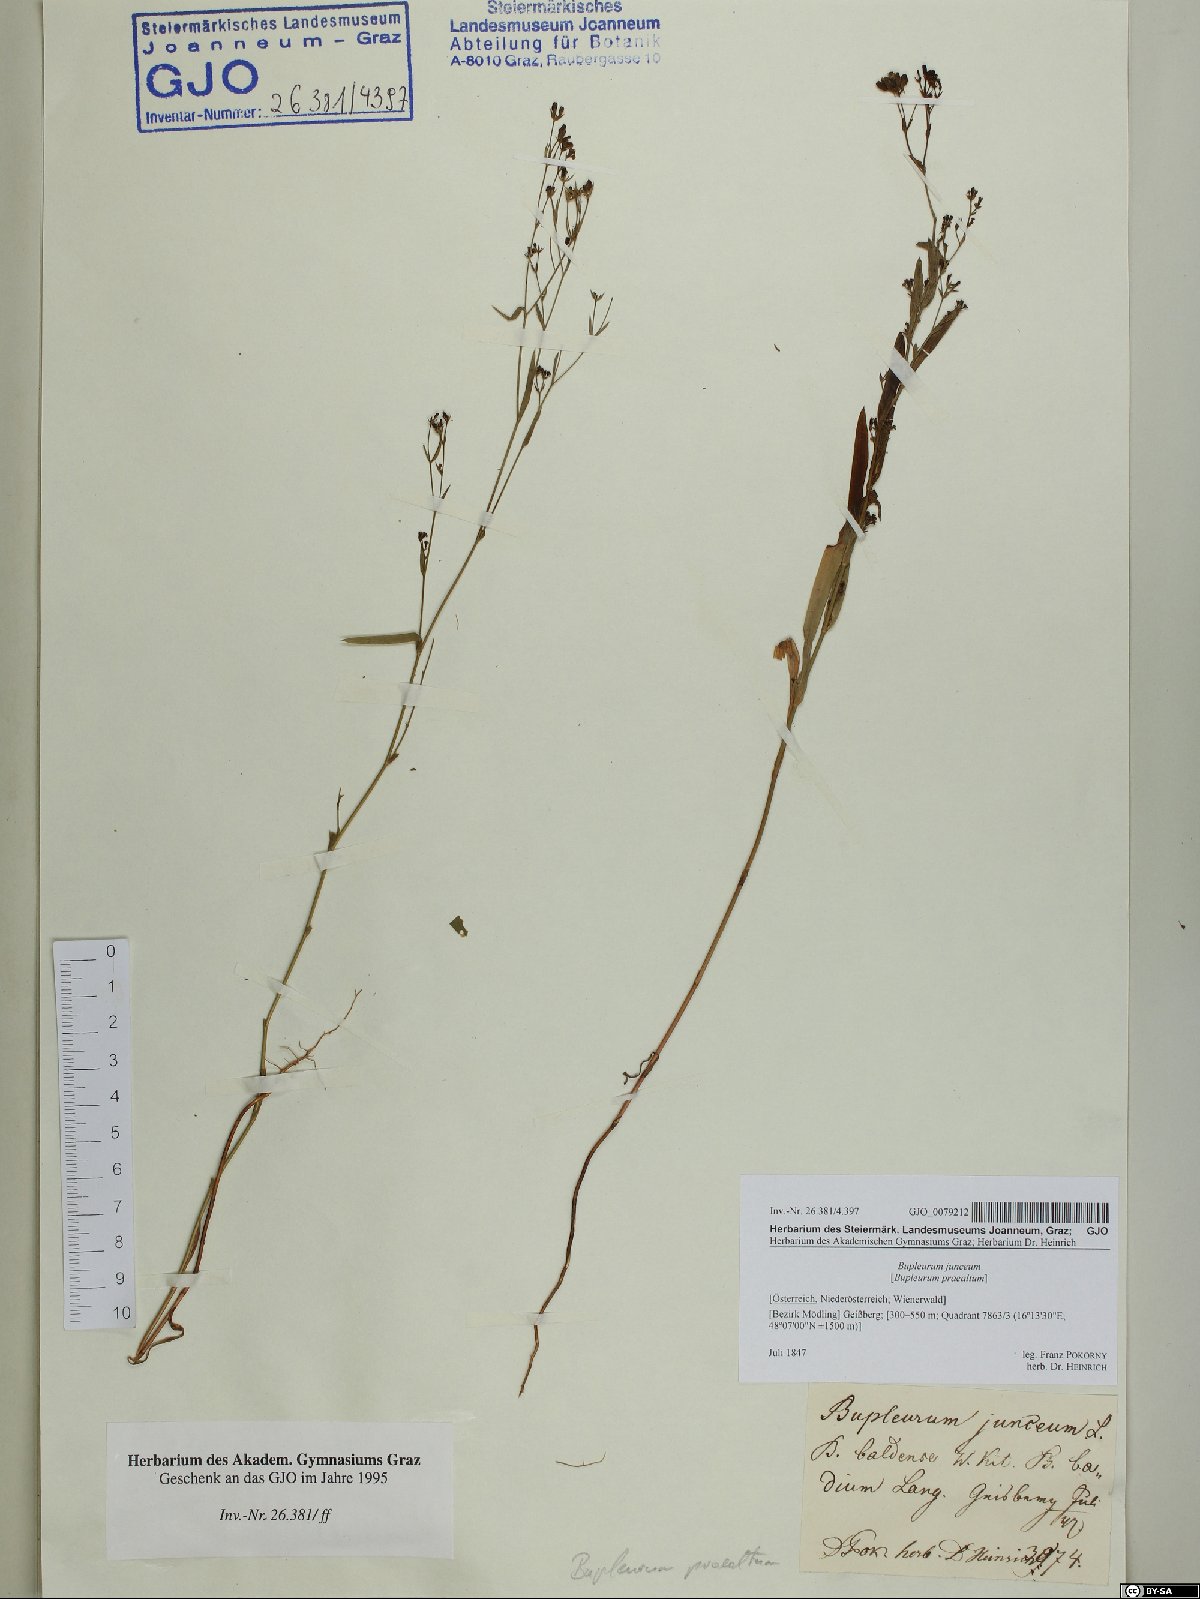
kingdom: Plantae
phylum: Tracheophyta
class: Magnoliopsida
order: Apiales
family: Apiaceae
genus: Bupleurum
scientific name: Bupleurum praealtum
